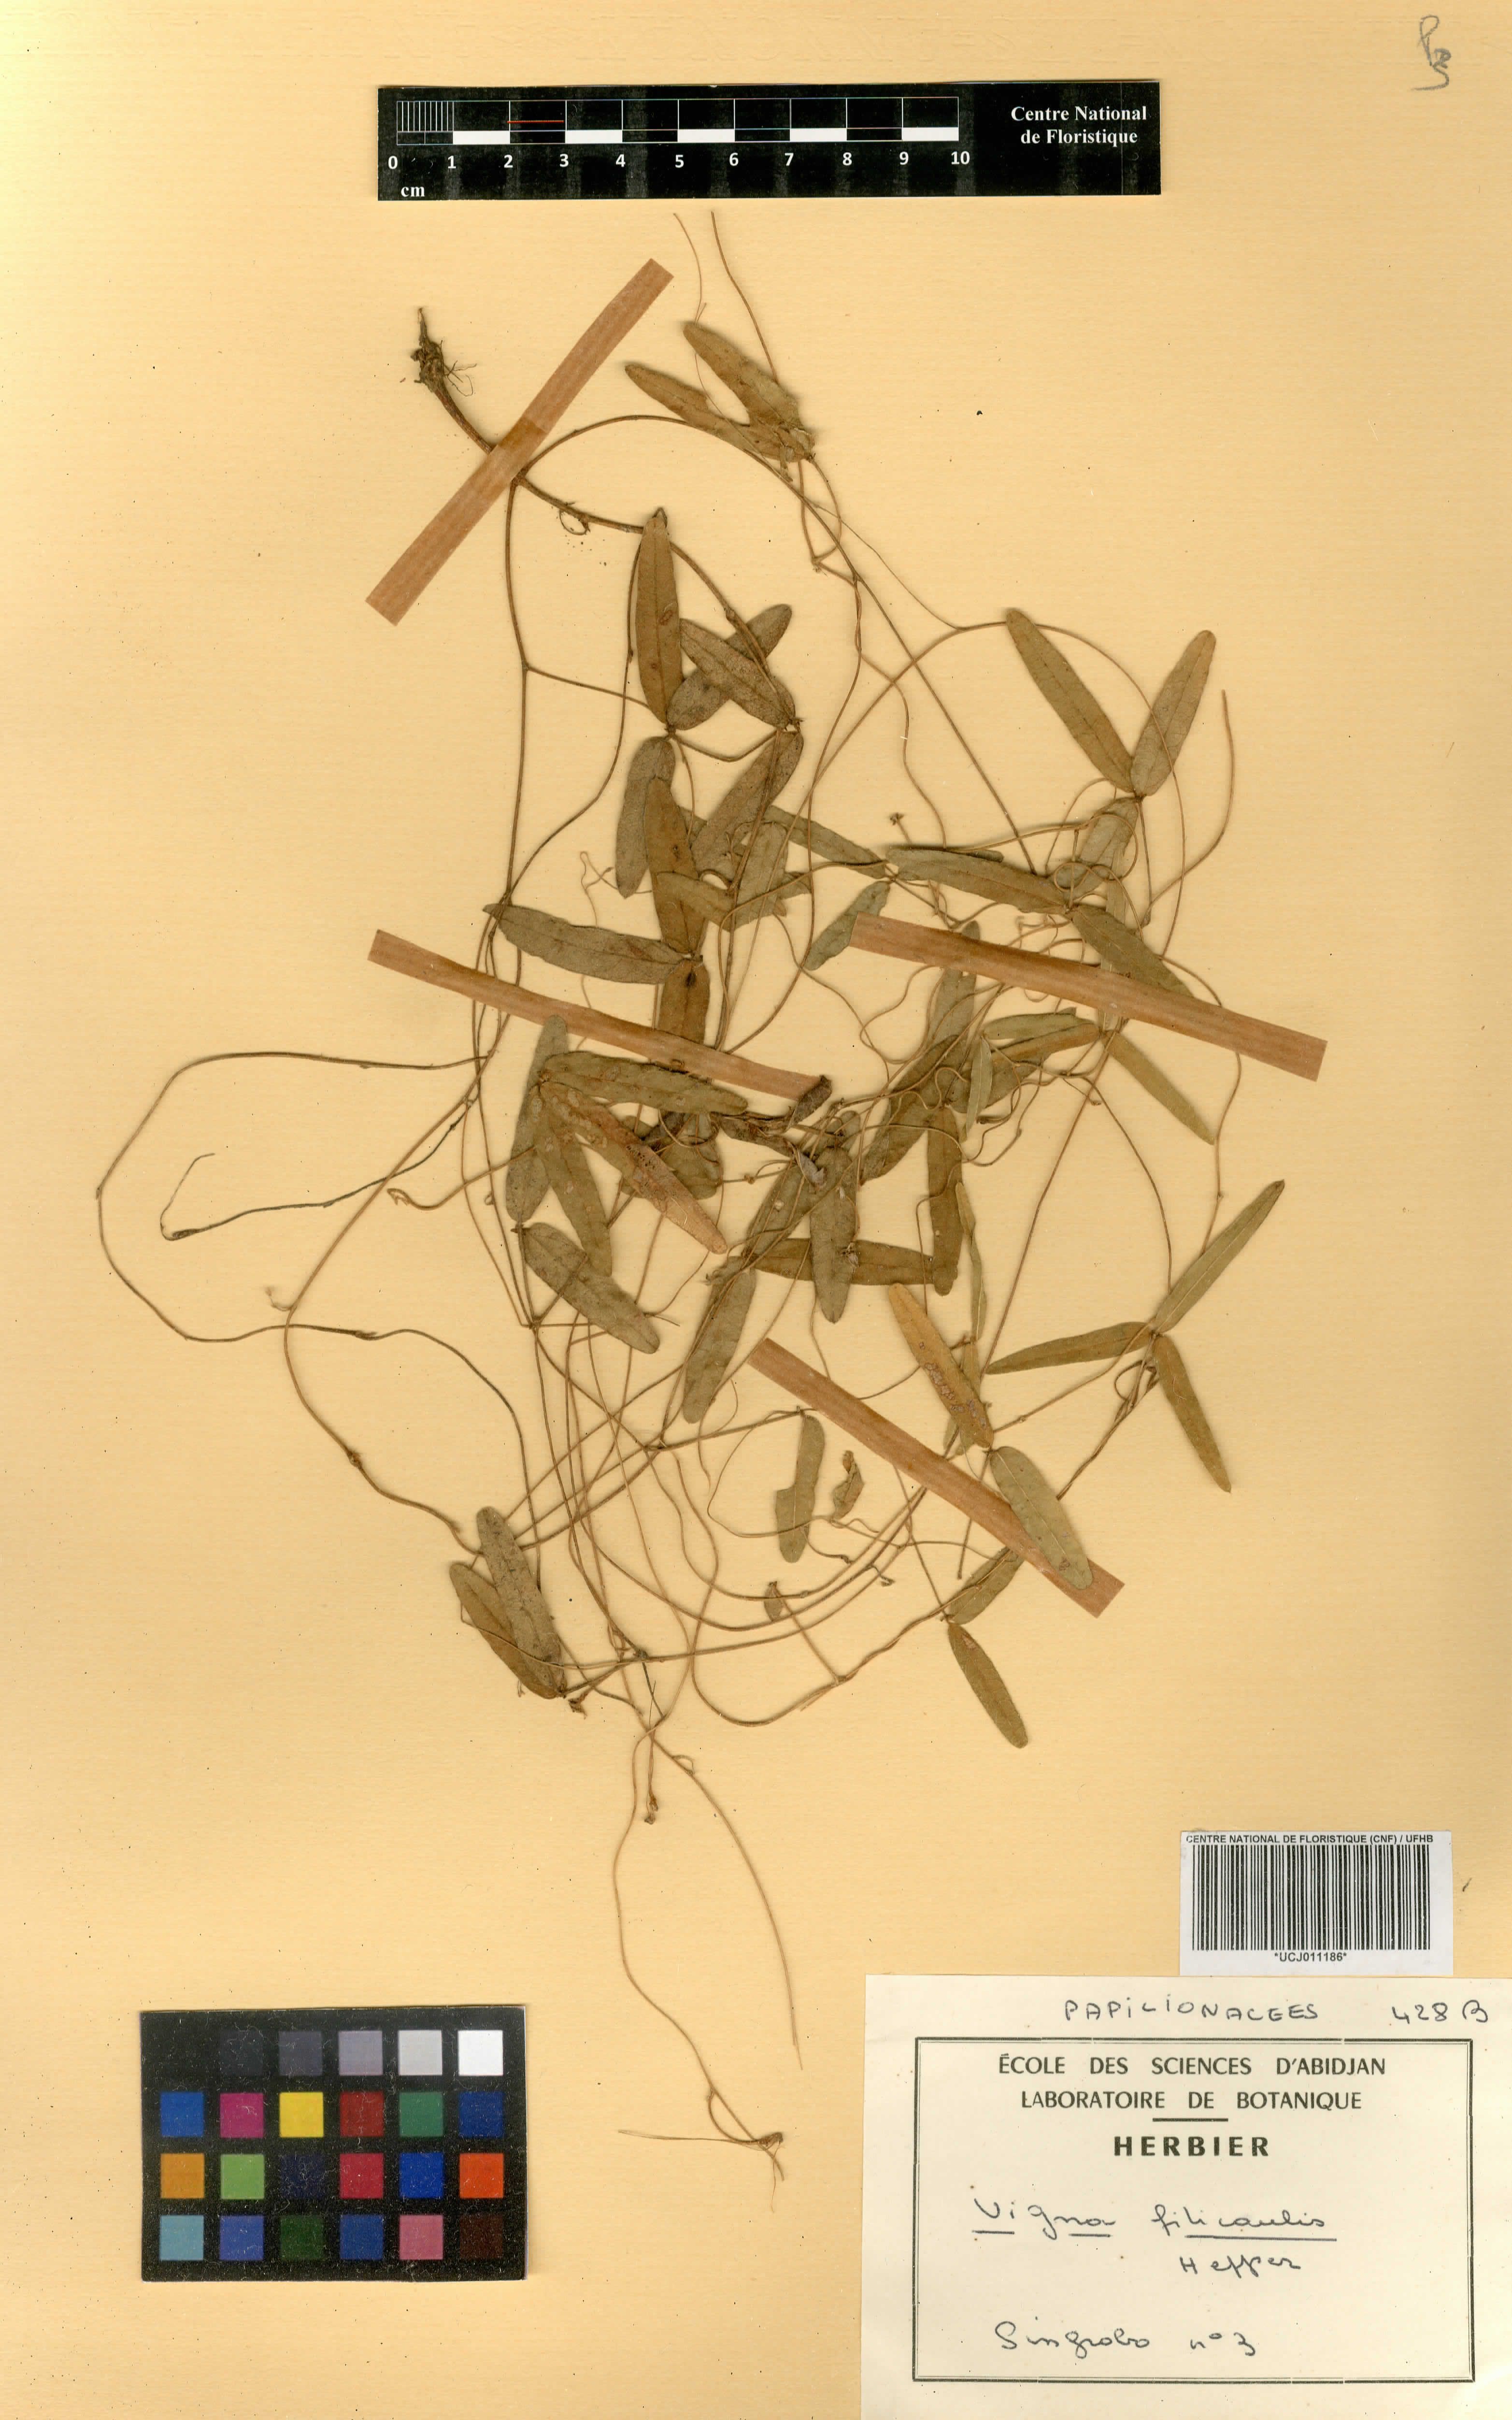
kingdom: Plantae
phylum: Tracheophyta
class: Magnoliopsida
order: Fabales
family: Fabaceae
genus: Vigna
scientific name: Vigna filicaulis
